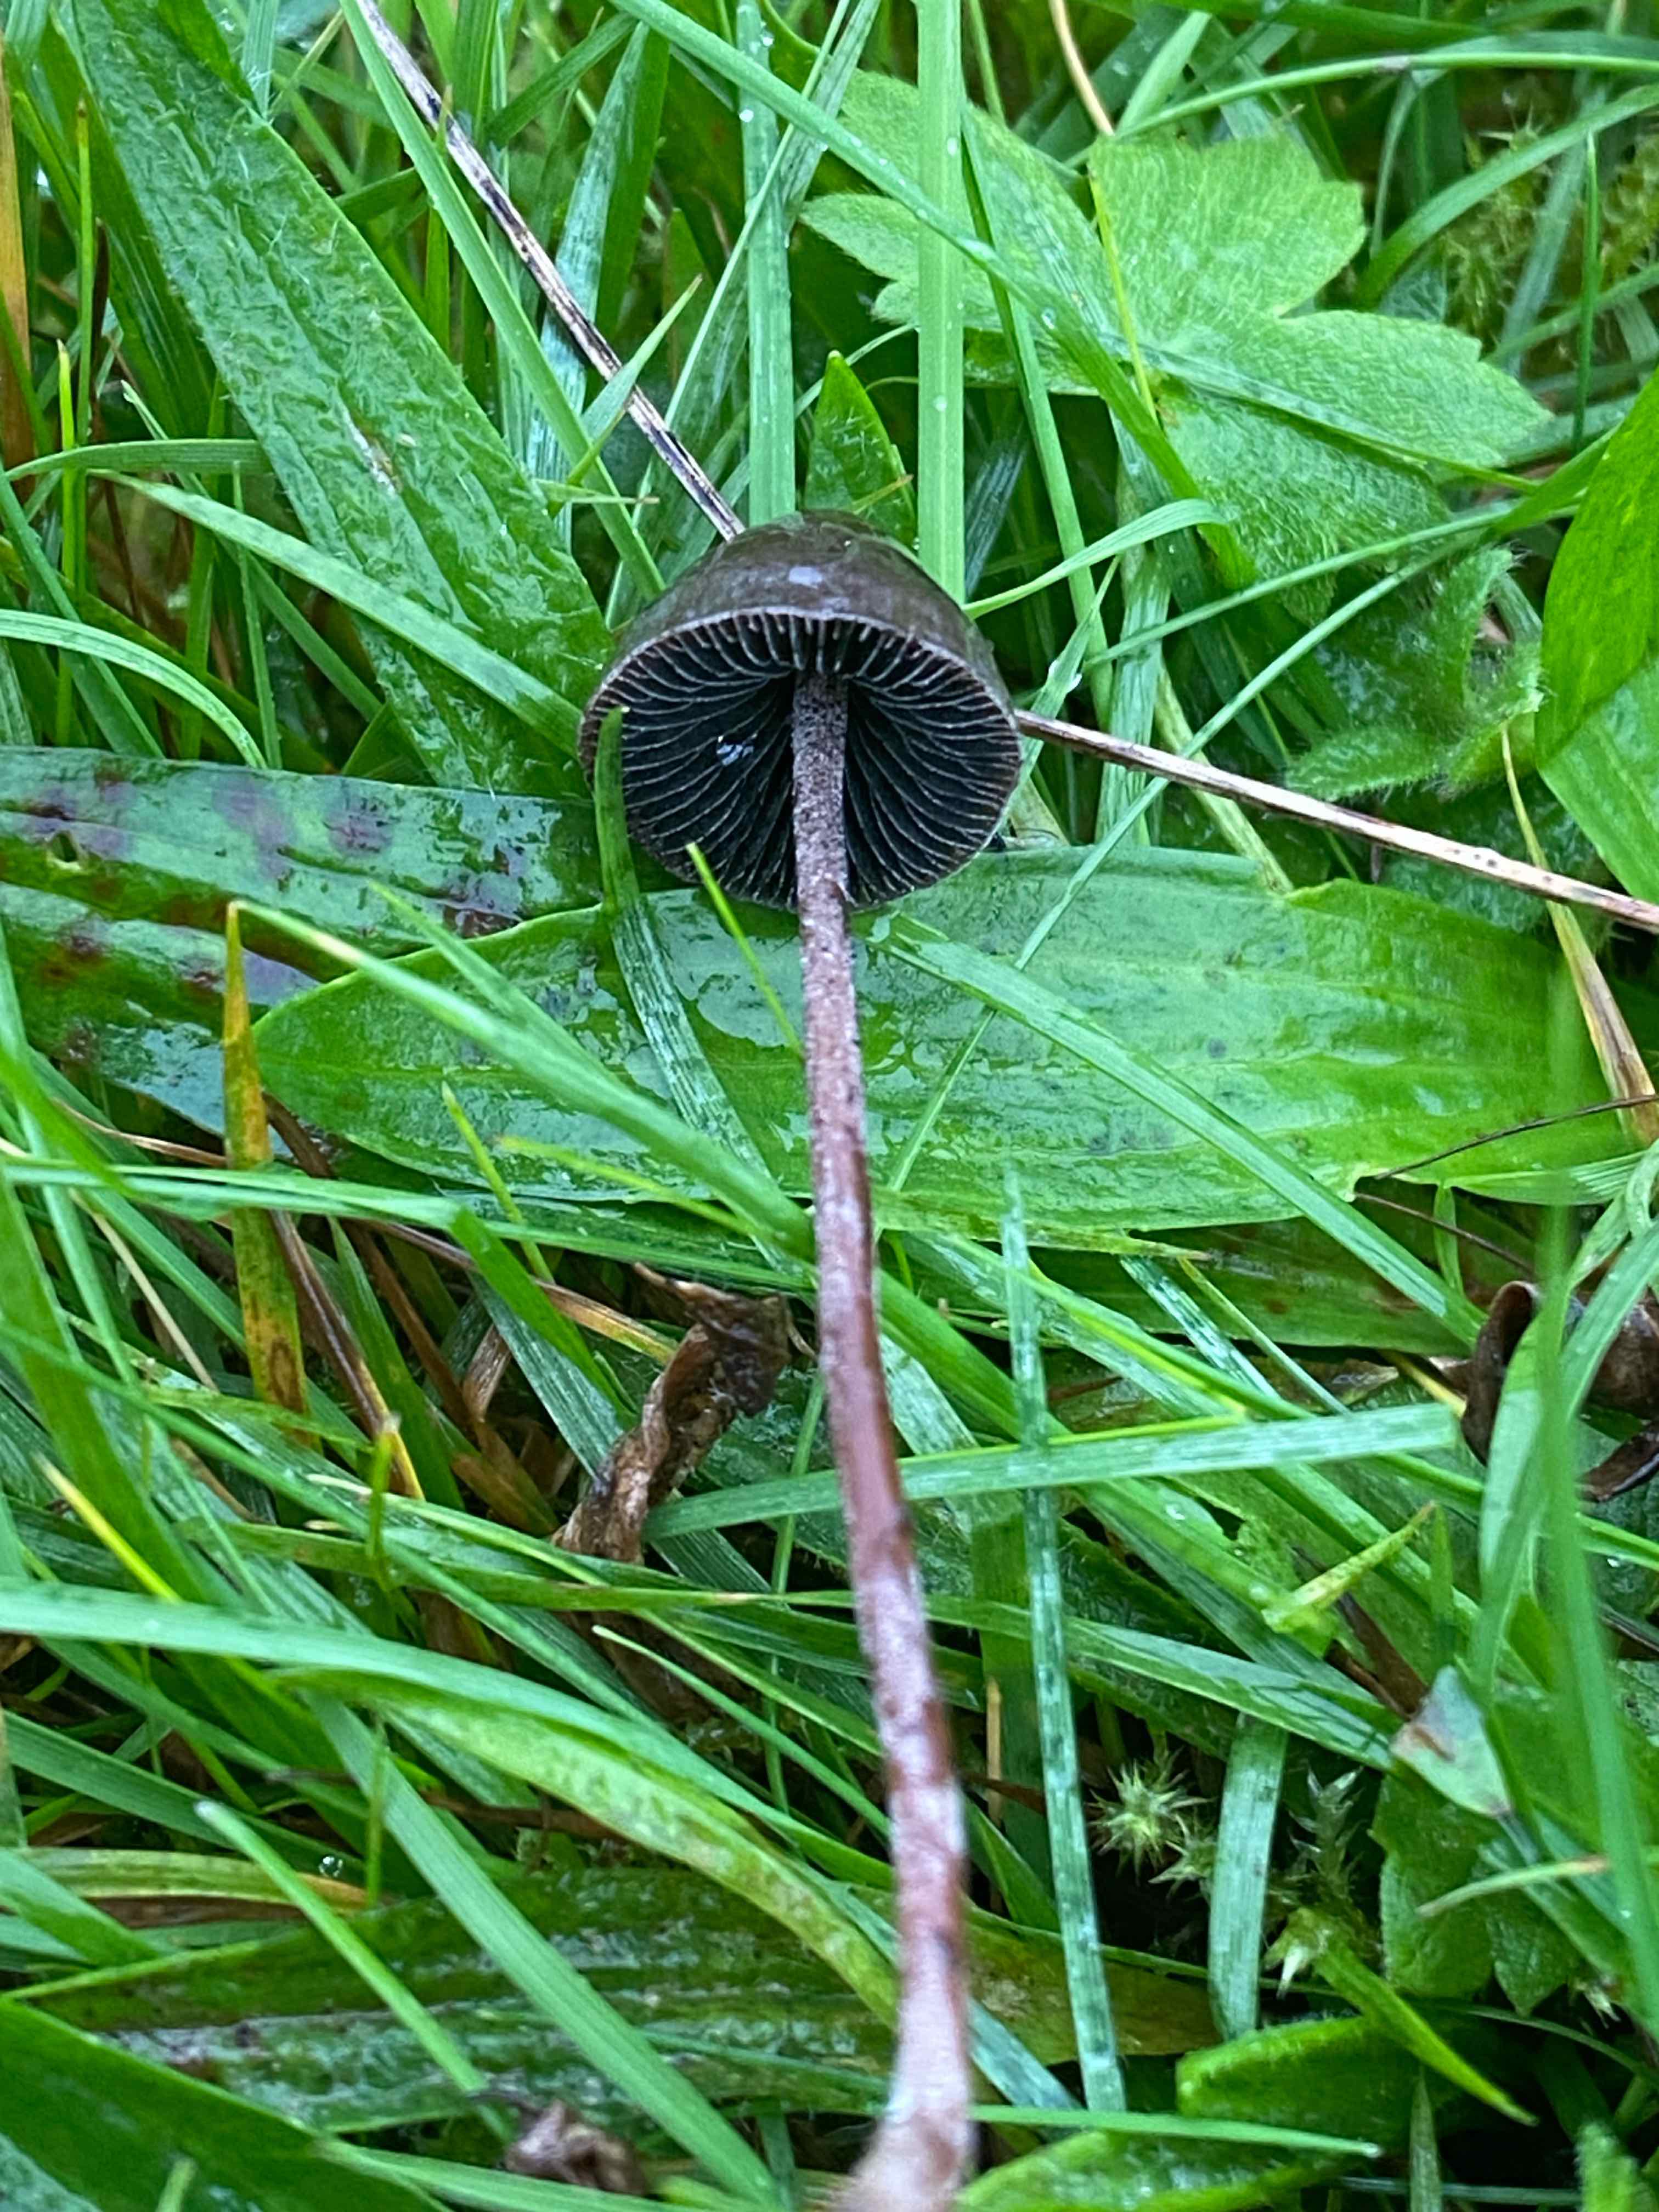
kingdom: Fungi
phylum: Basidiomycota
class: Agaricomycetes
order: Agaricales
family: Bolbitiaceae
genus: Panaeolus
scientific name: Panaeolus acuminatus
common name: høj glanshat
